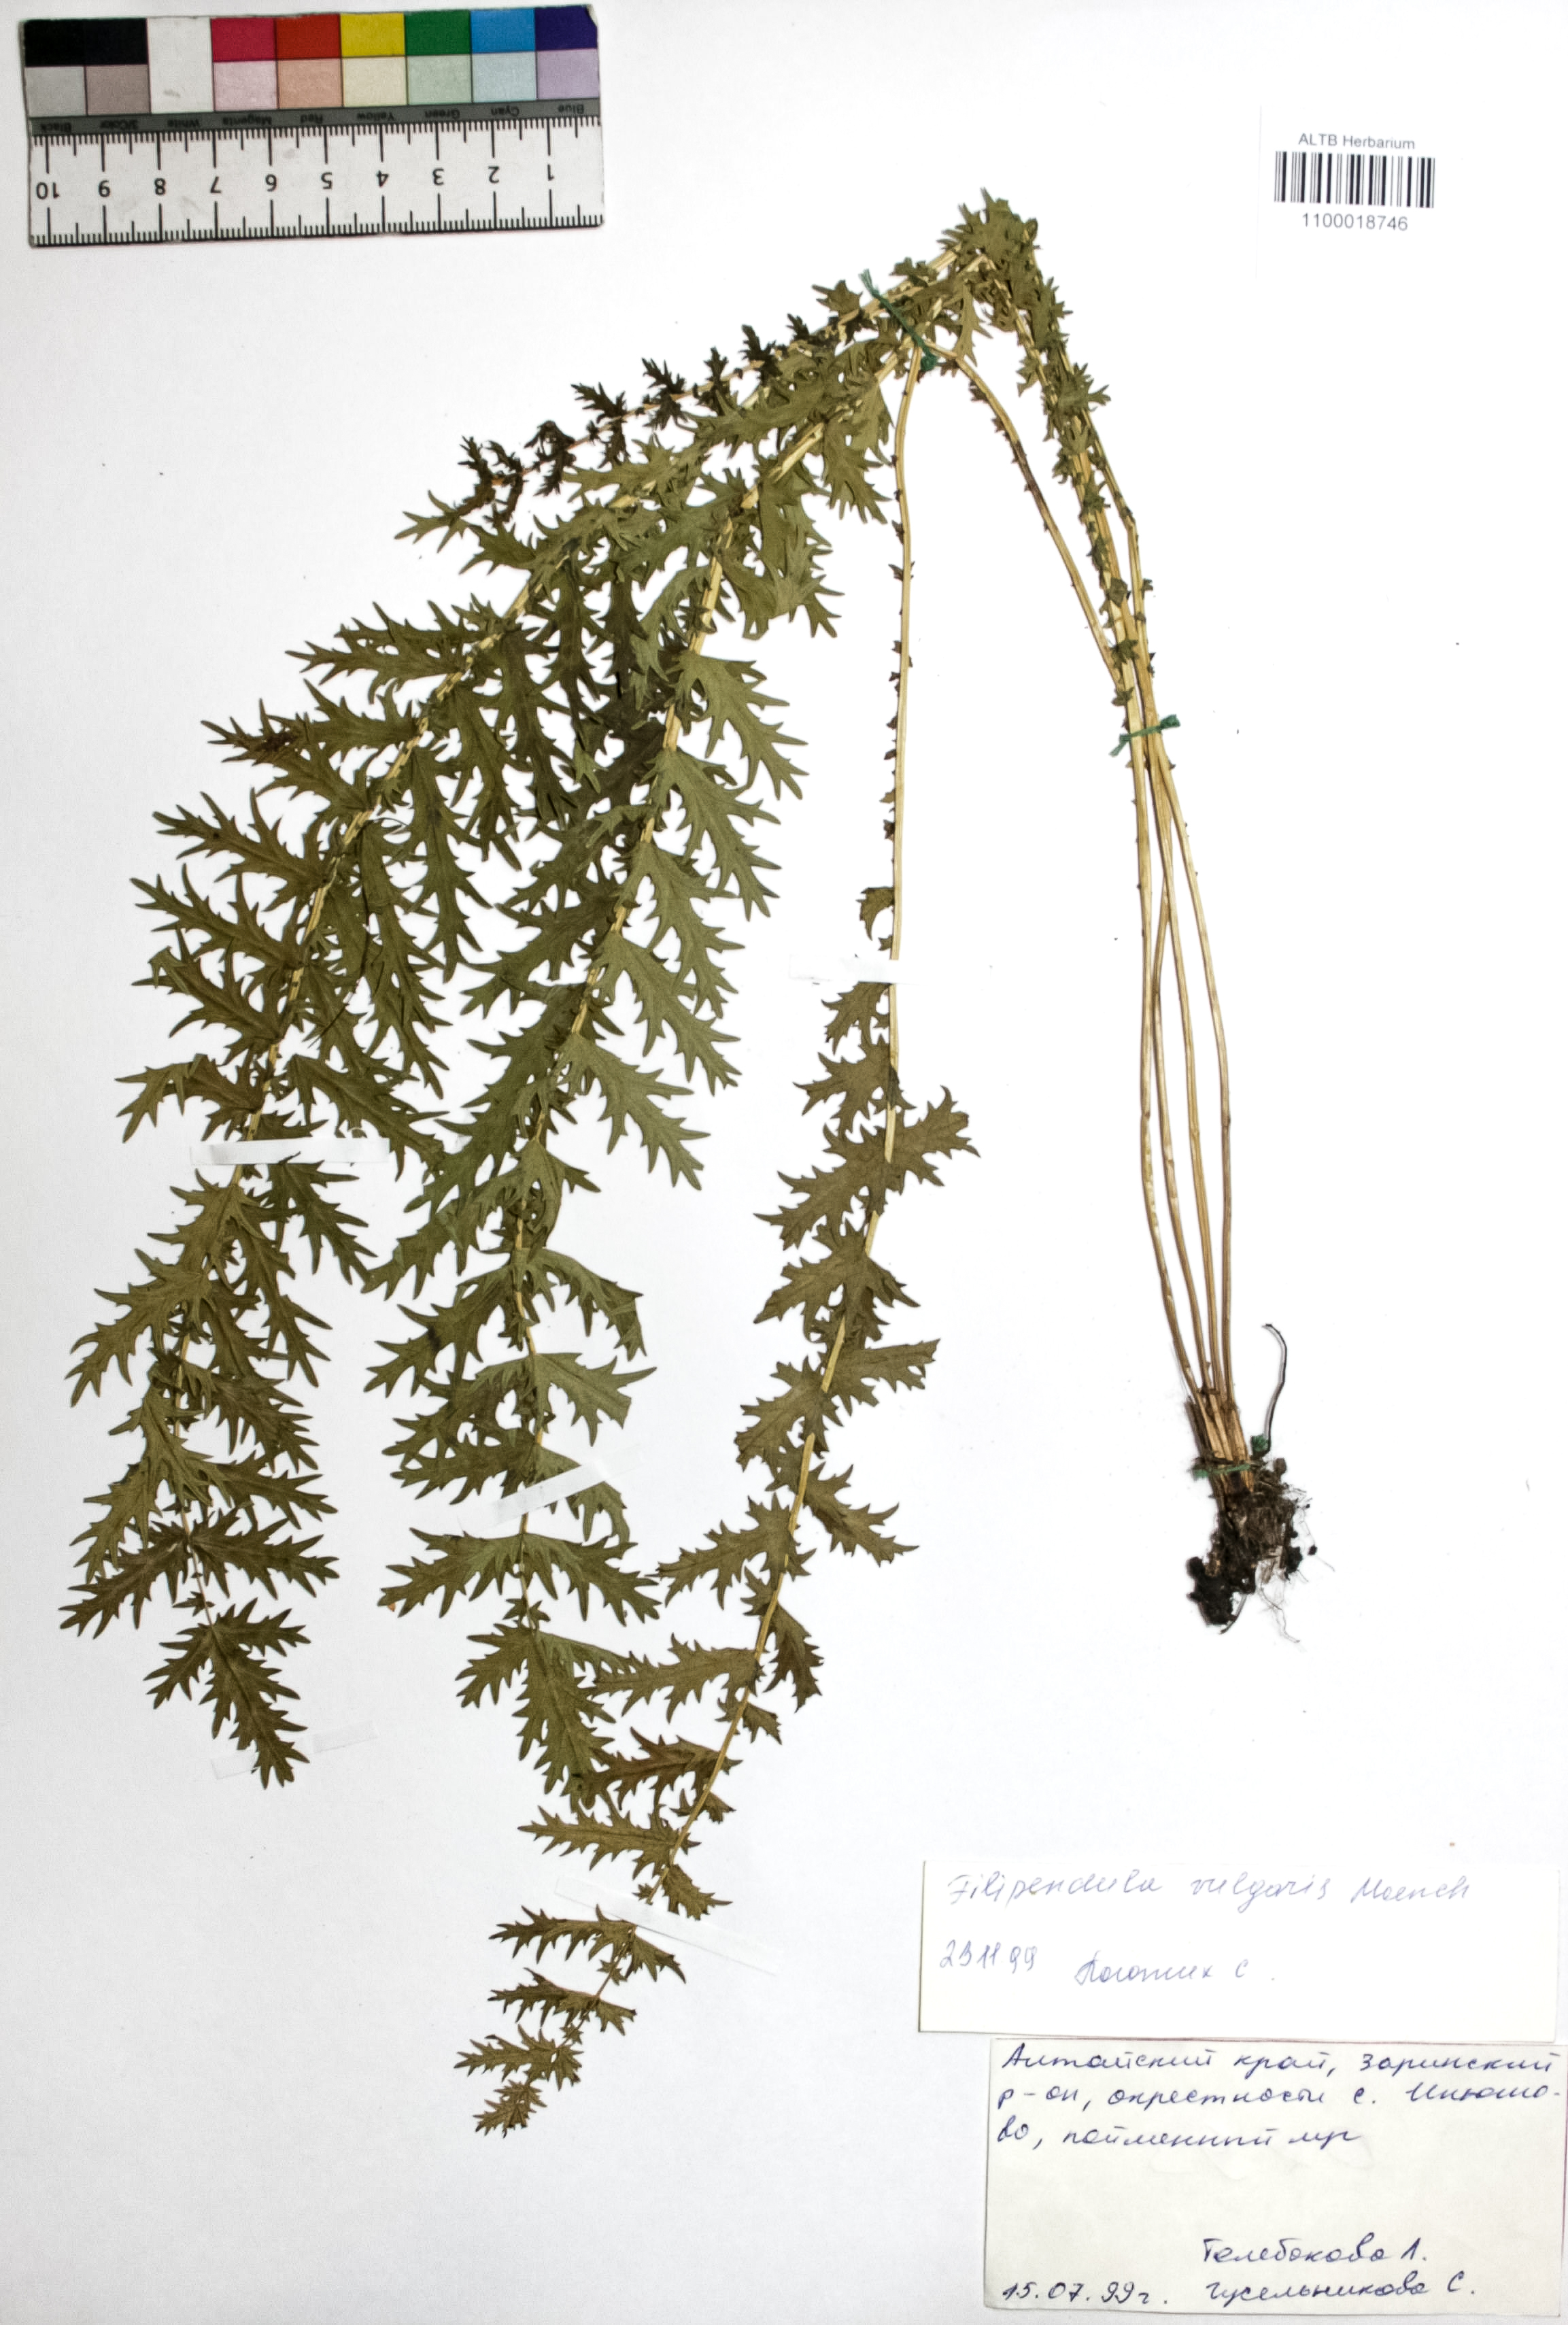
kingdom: Plantae
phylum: Tracheophyta
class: Magnoliopsida
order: Rosales
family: Rosaceae
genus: Filipendula
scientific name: Filipendula vulgaris
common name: Dropwort
